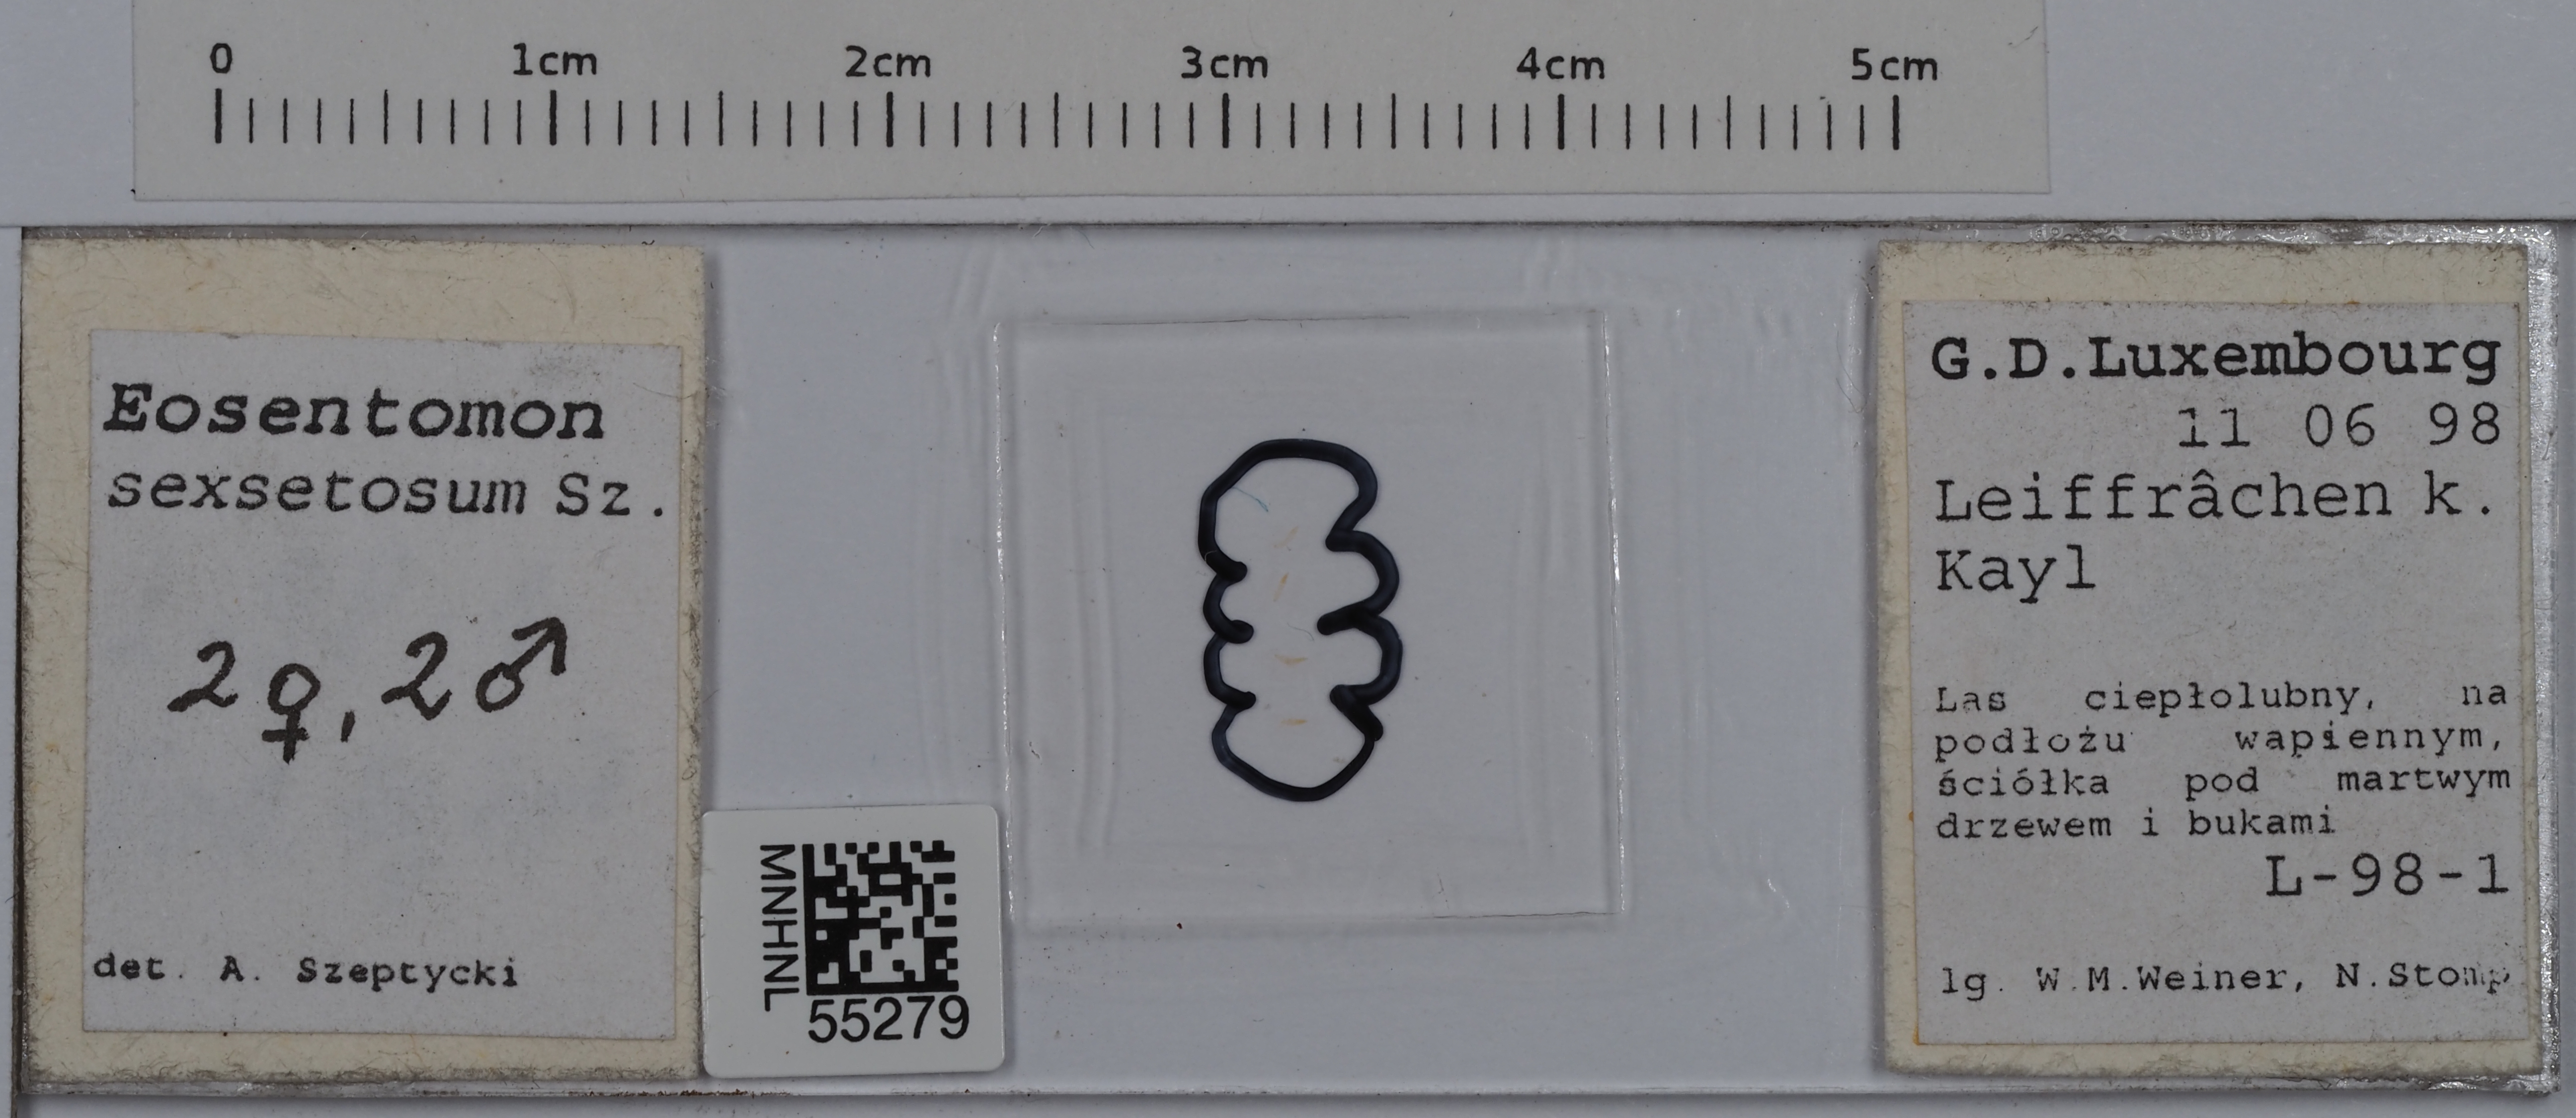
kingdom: Animalia
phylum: Arthropoda
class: Protura
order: Protura
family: Eosentomidae
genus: Eosentomon
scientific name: Eosentomon sexsetosum
